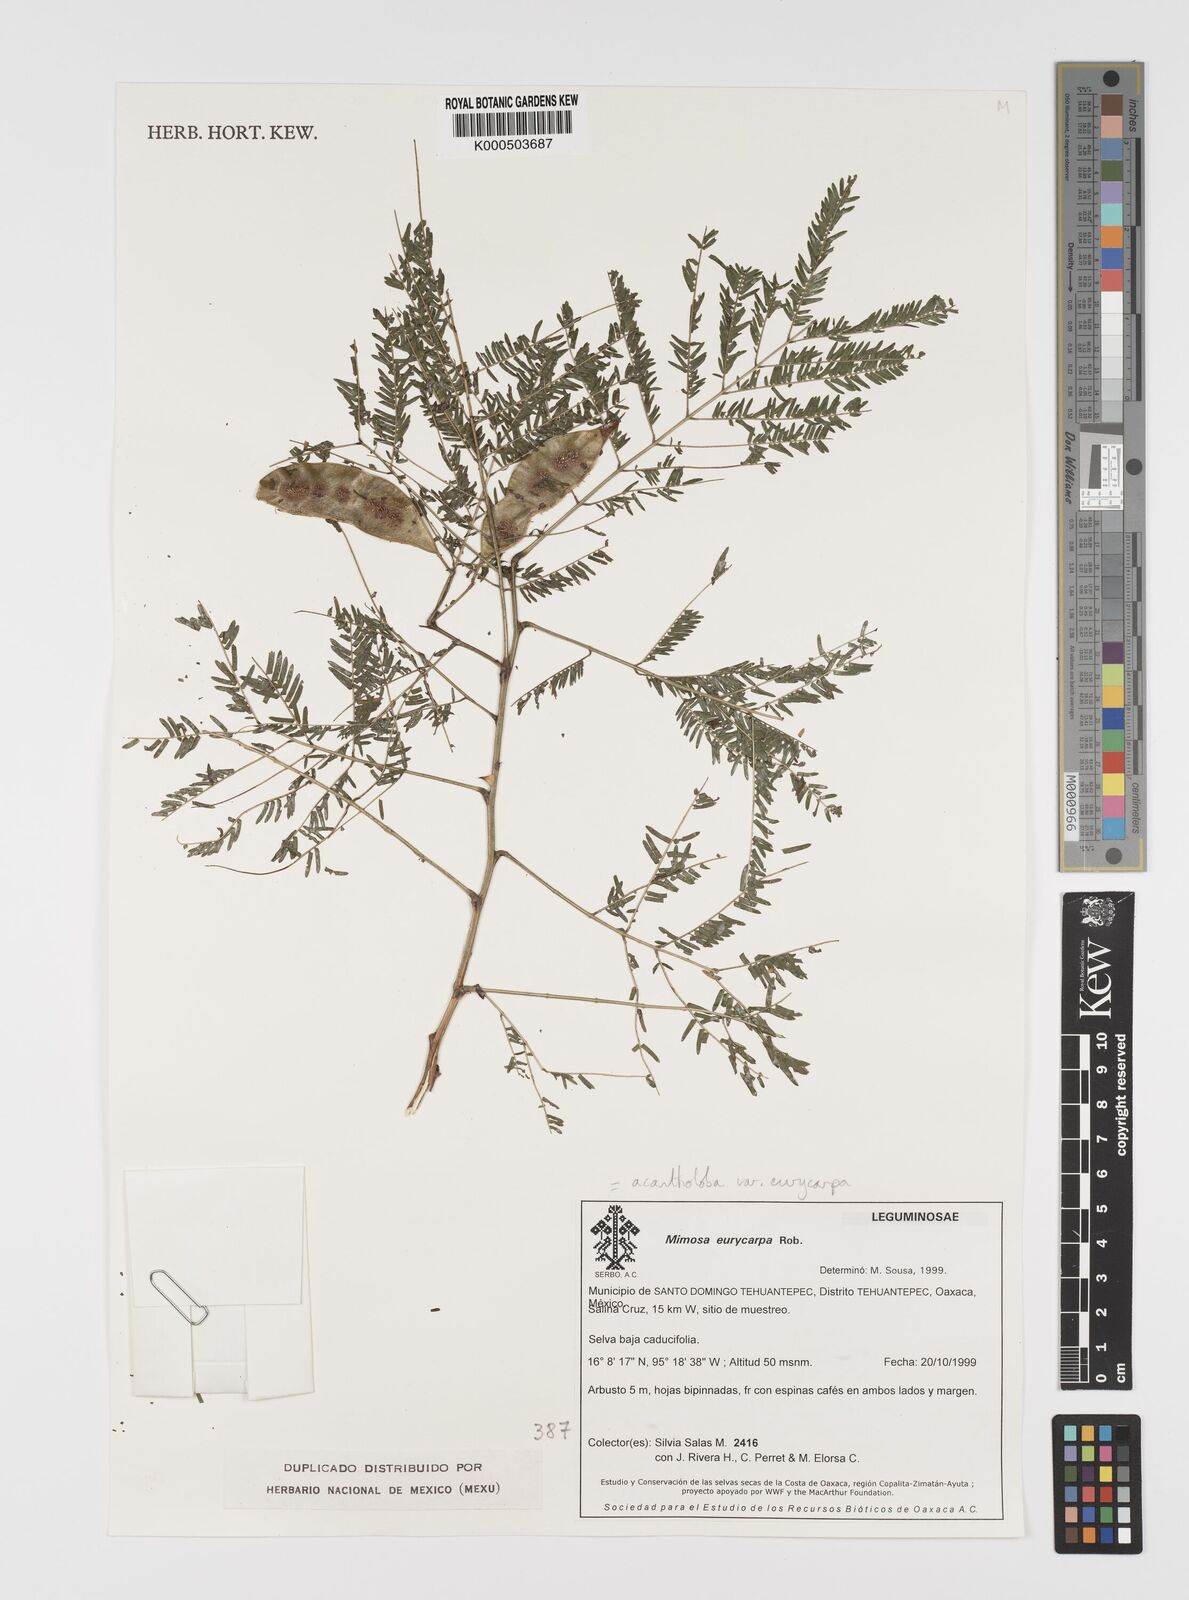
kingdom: Plantae
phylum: Tracheophyta
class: Magnoliopsida
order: Fabales
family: Fabaceae
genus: Mimosa
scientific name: Mimosa acantholoba
